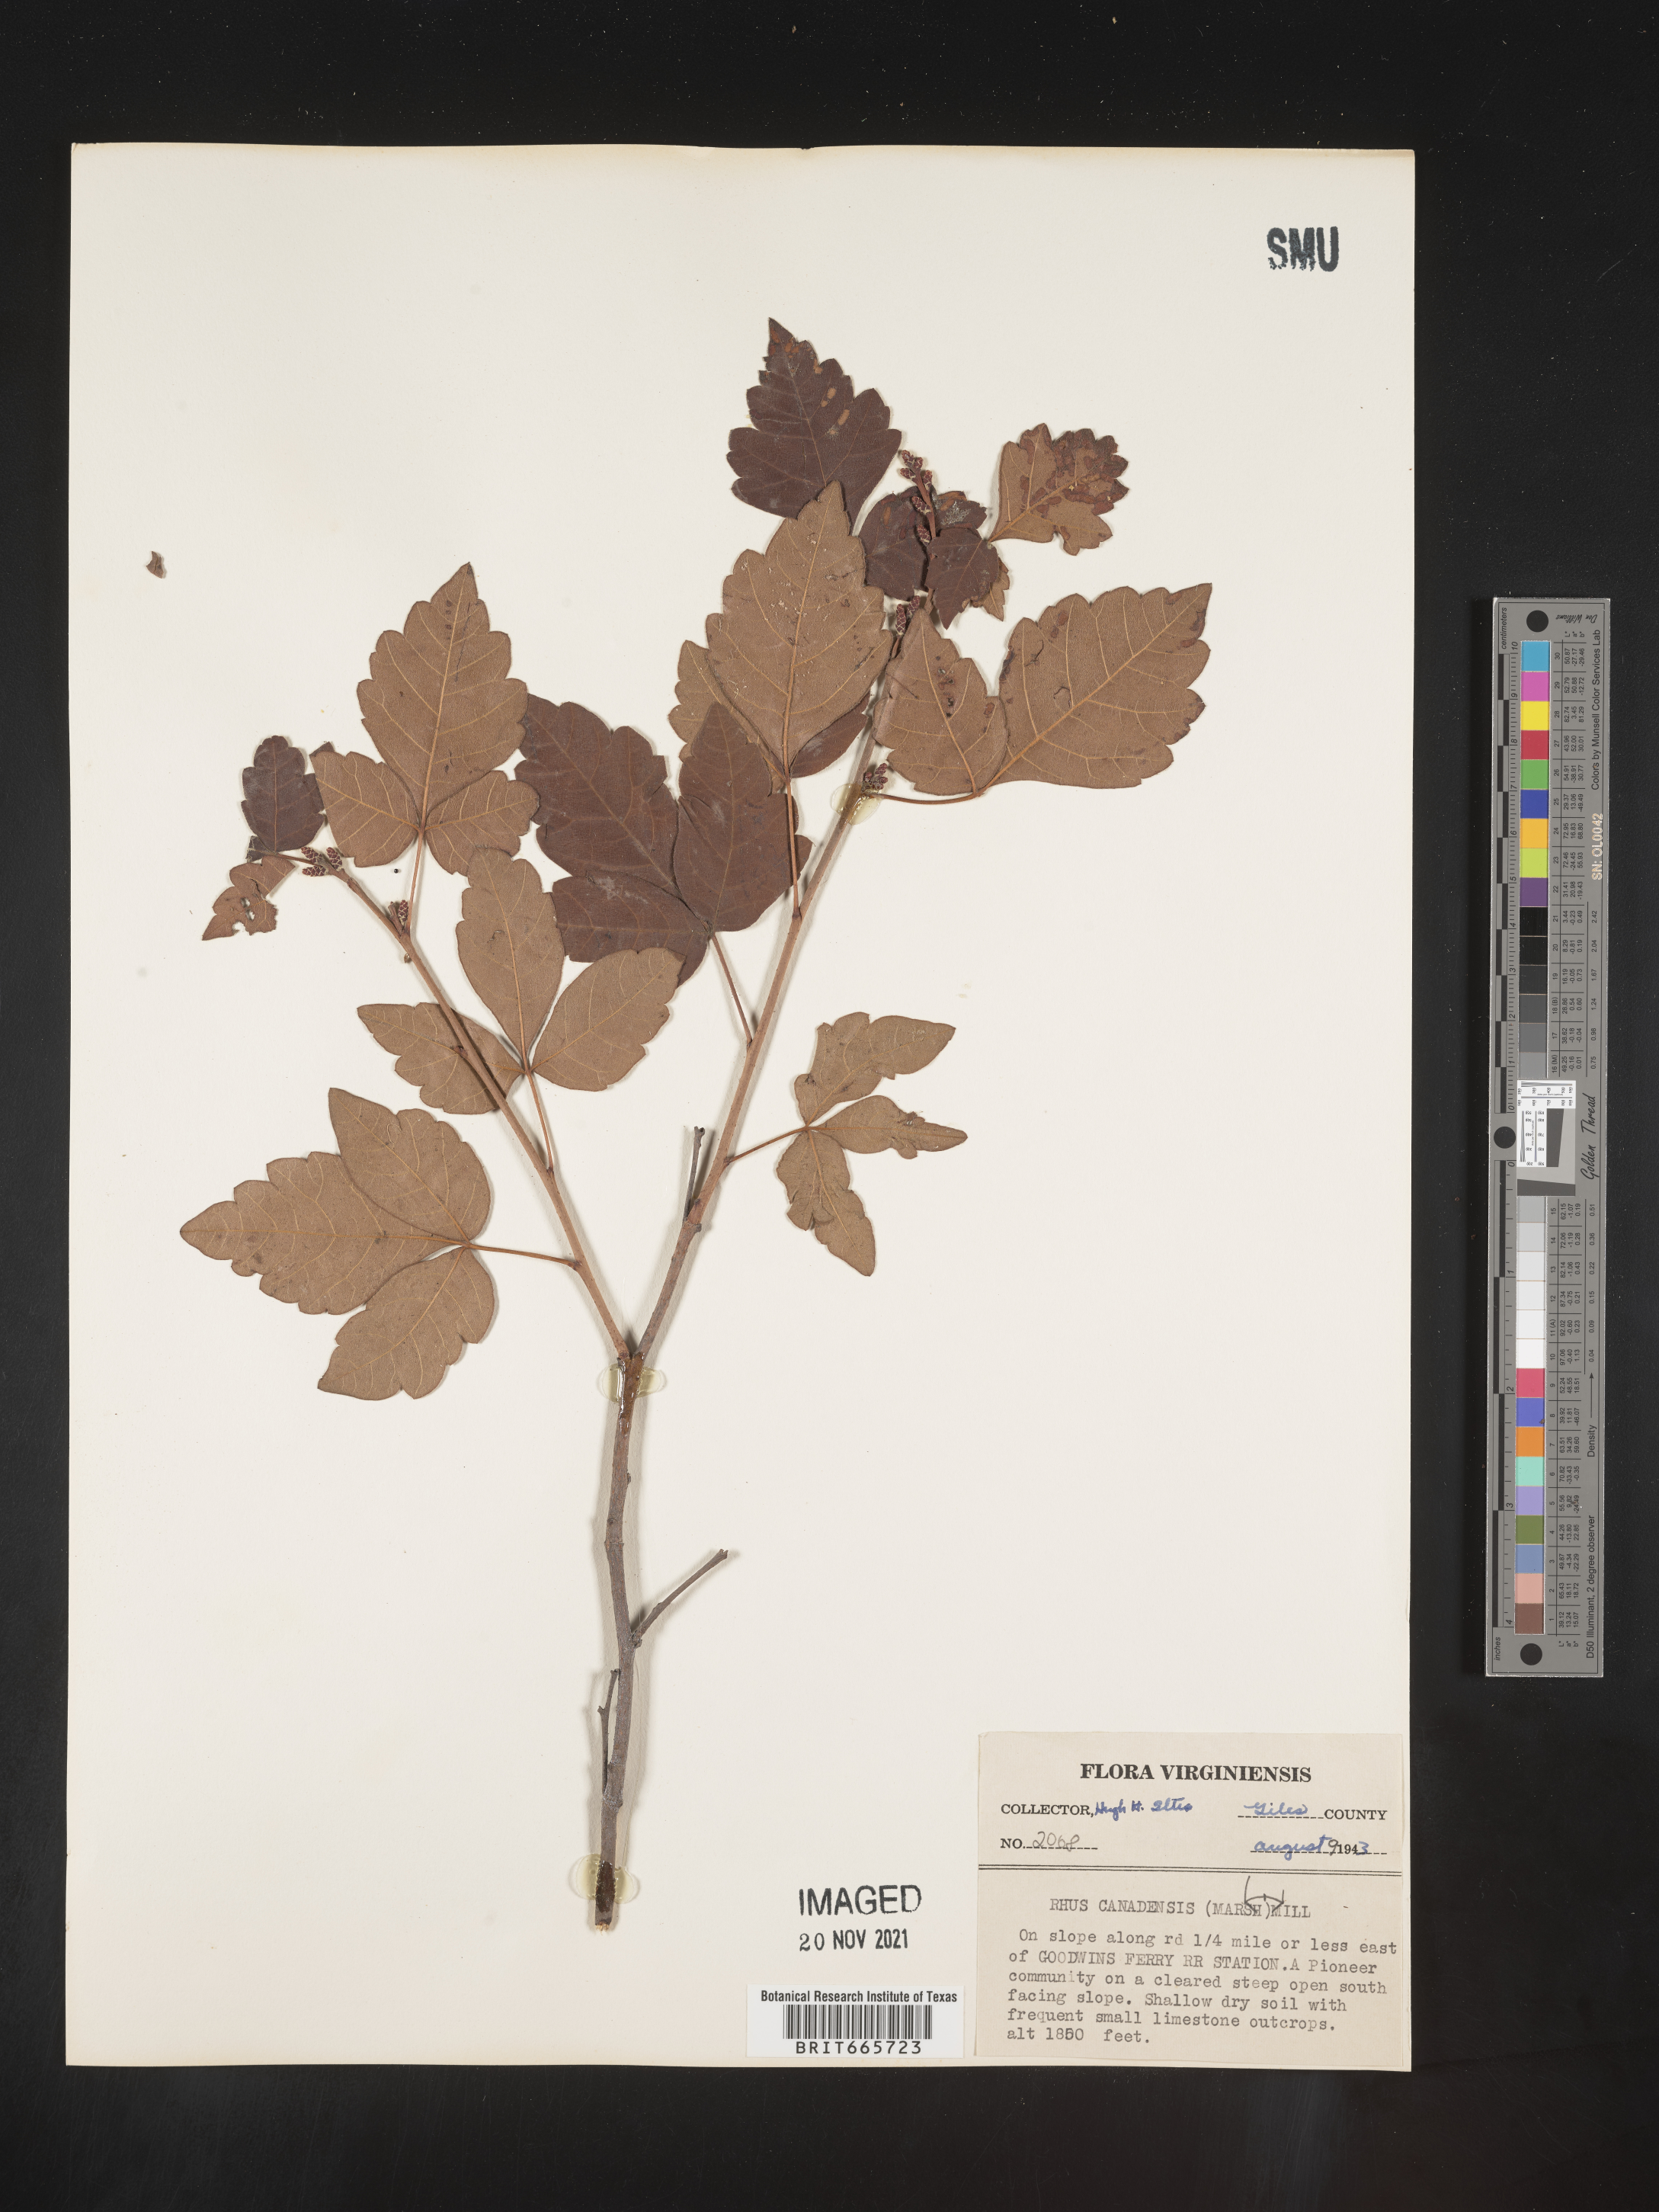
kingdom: Plantae
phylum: Tracheophyta
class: Magnoliopsida
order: Sapindales
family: Anacardiaceae
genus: Rhus
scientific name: Rhus aromatica
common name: Aromatic sumac
